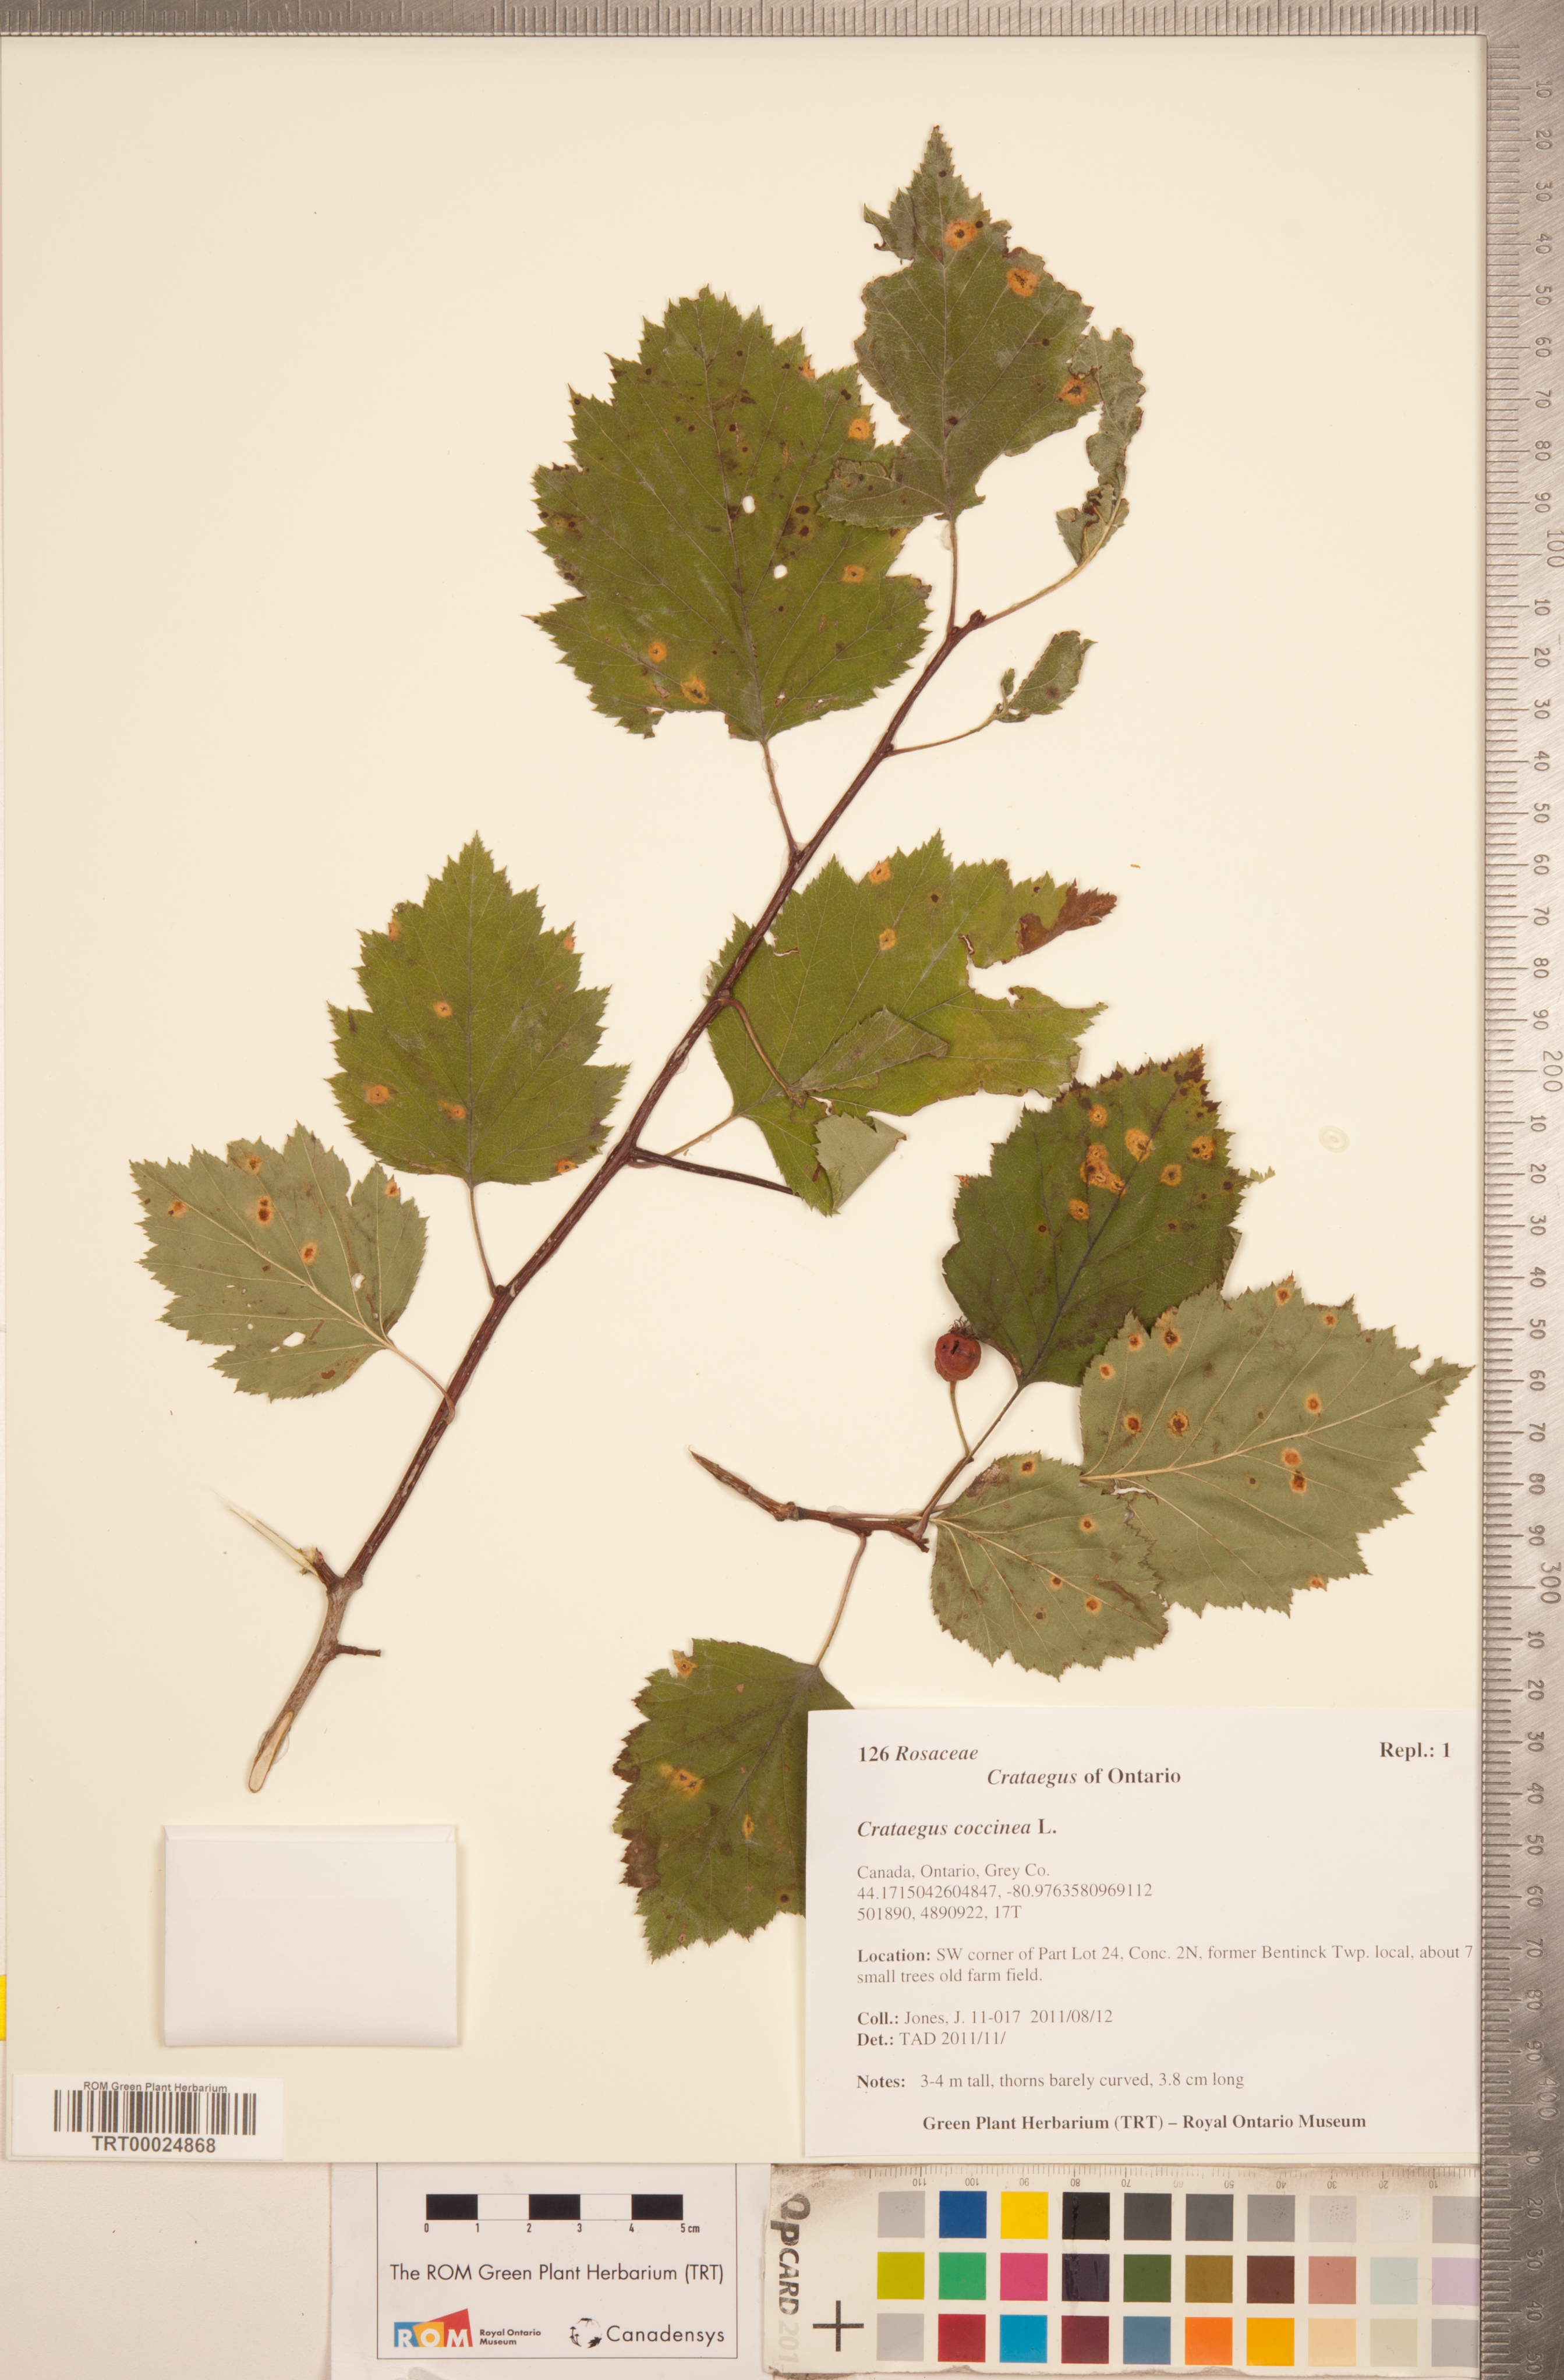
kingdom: Plantae
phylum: Tracheophyta
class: Magnoliopsida
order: Rosales
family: Rosaceae
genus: Crataegus
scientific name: Crataegus coccinea
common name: Scarlet hawthorn
